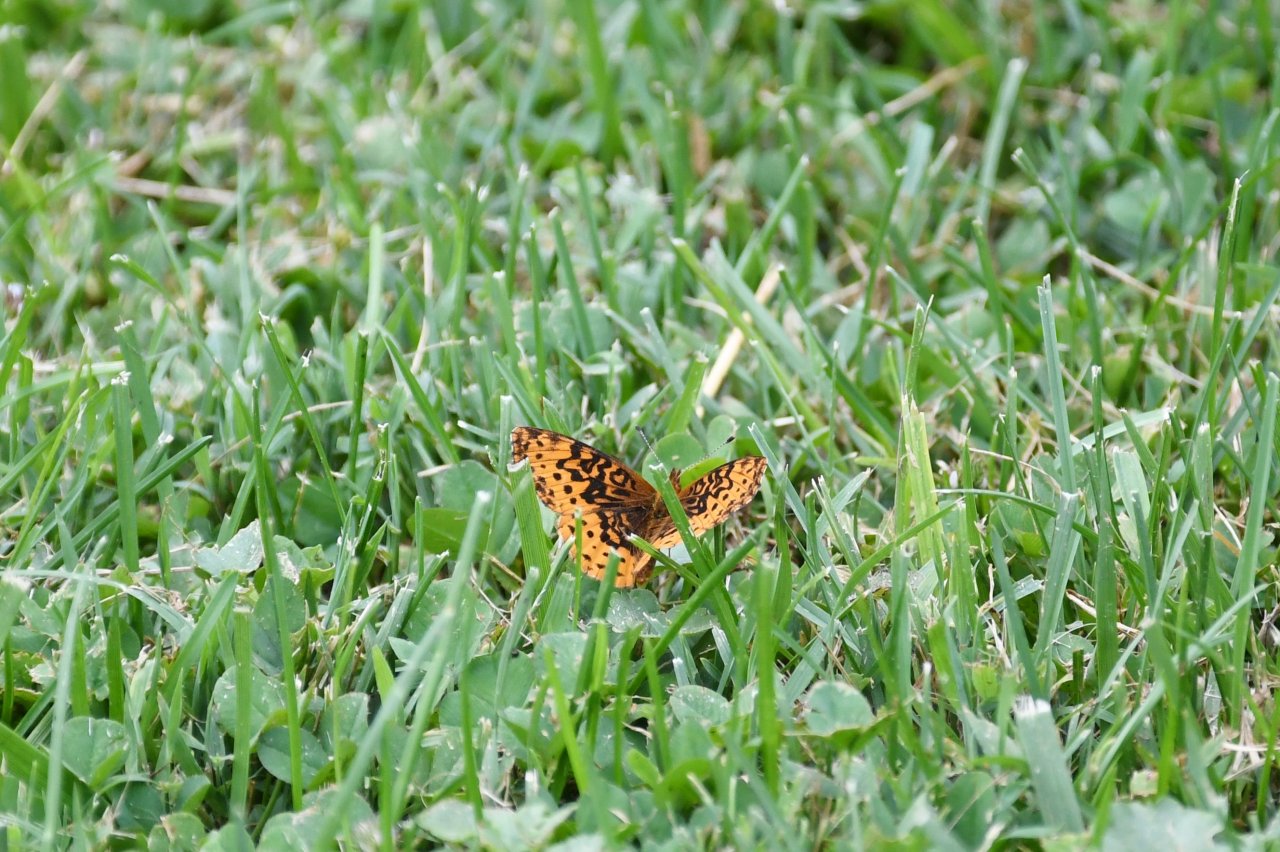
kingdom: Animalia
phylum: Arthropoda
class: Insecta
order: Lepidoptera
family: Nymphalidae
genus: Clossiana
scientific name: Clossiana toddi
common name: Meadow Fritillary
